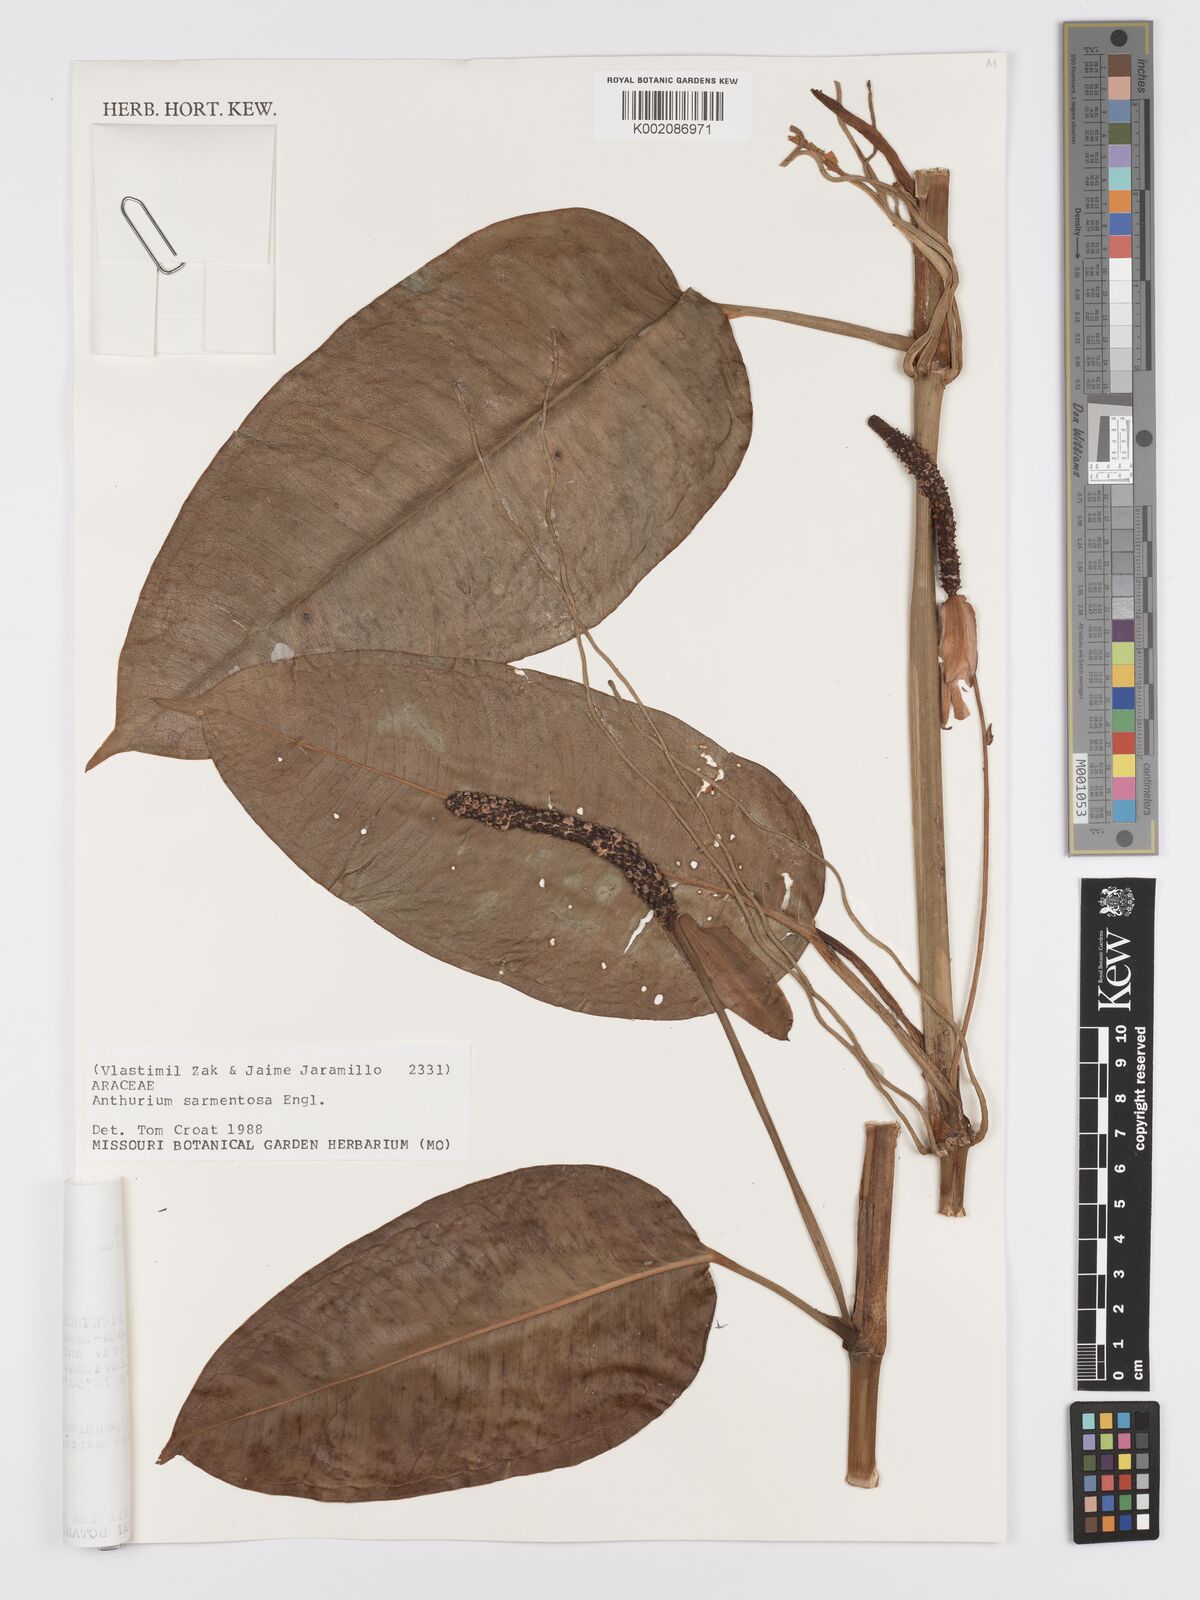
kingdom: Plantae
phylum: Tracheophyta
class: Liliopsida
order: Alismatales
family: Araceae
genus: Anthurium
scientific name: Anthurium sarmentosum
